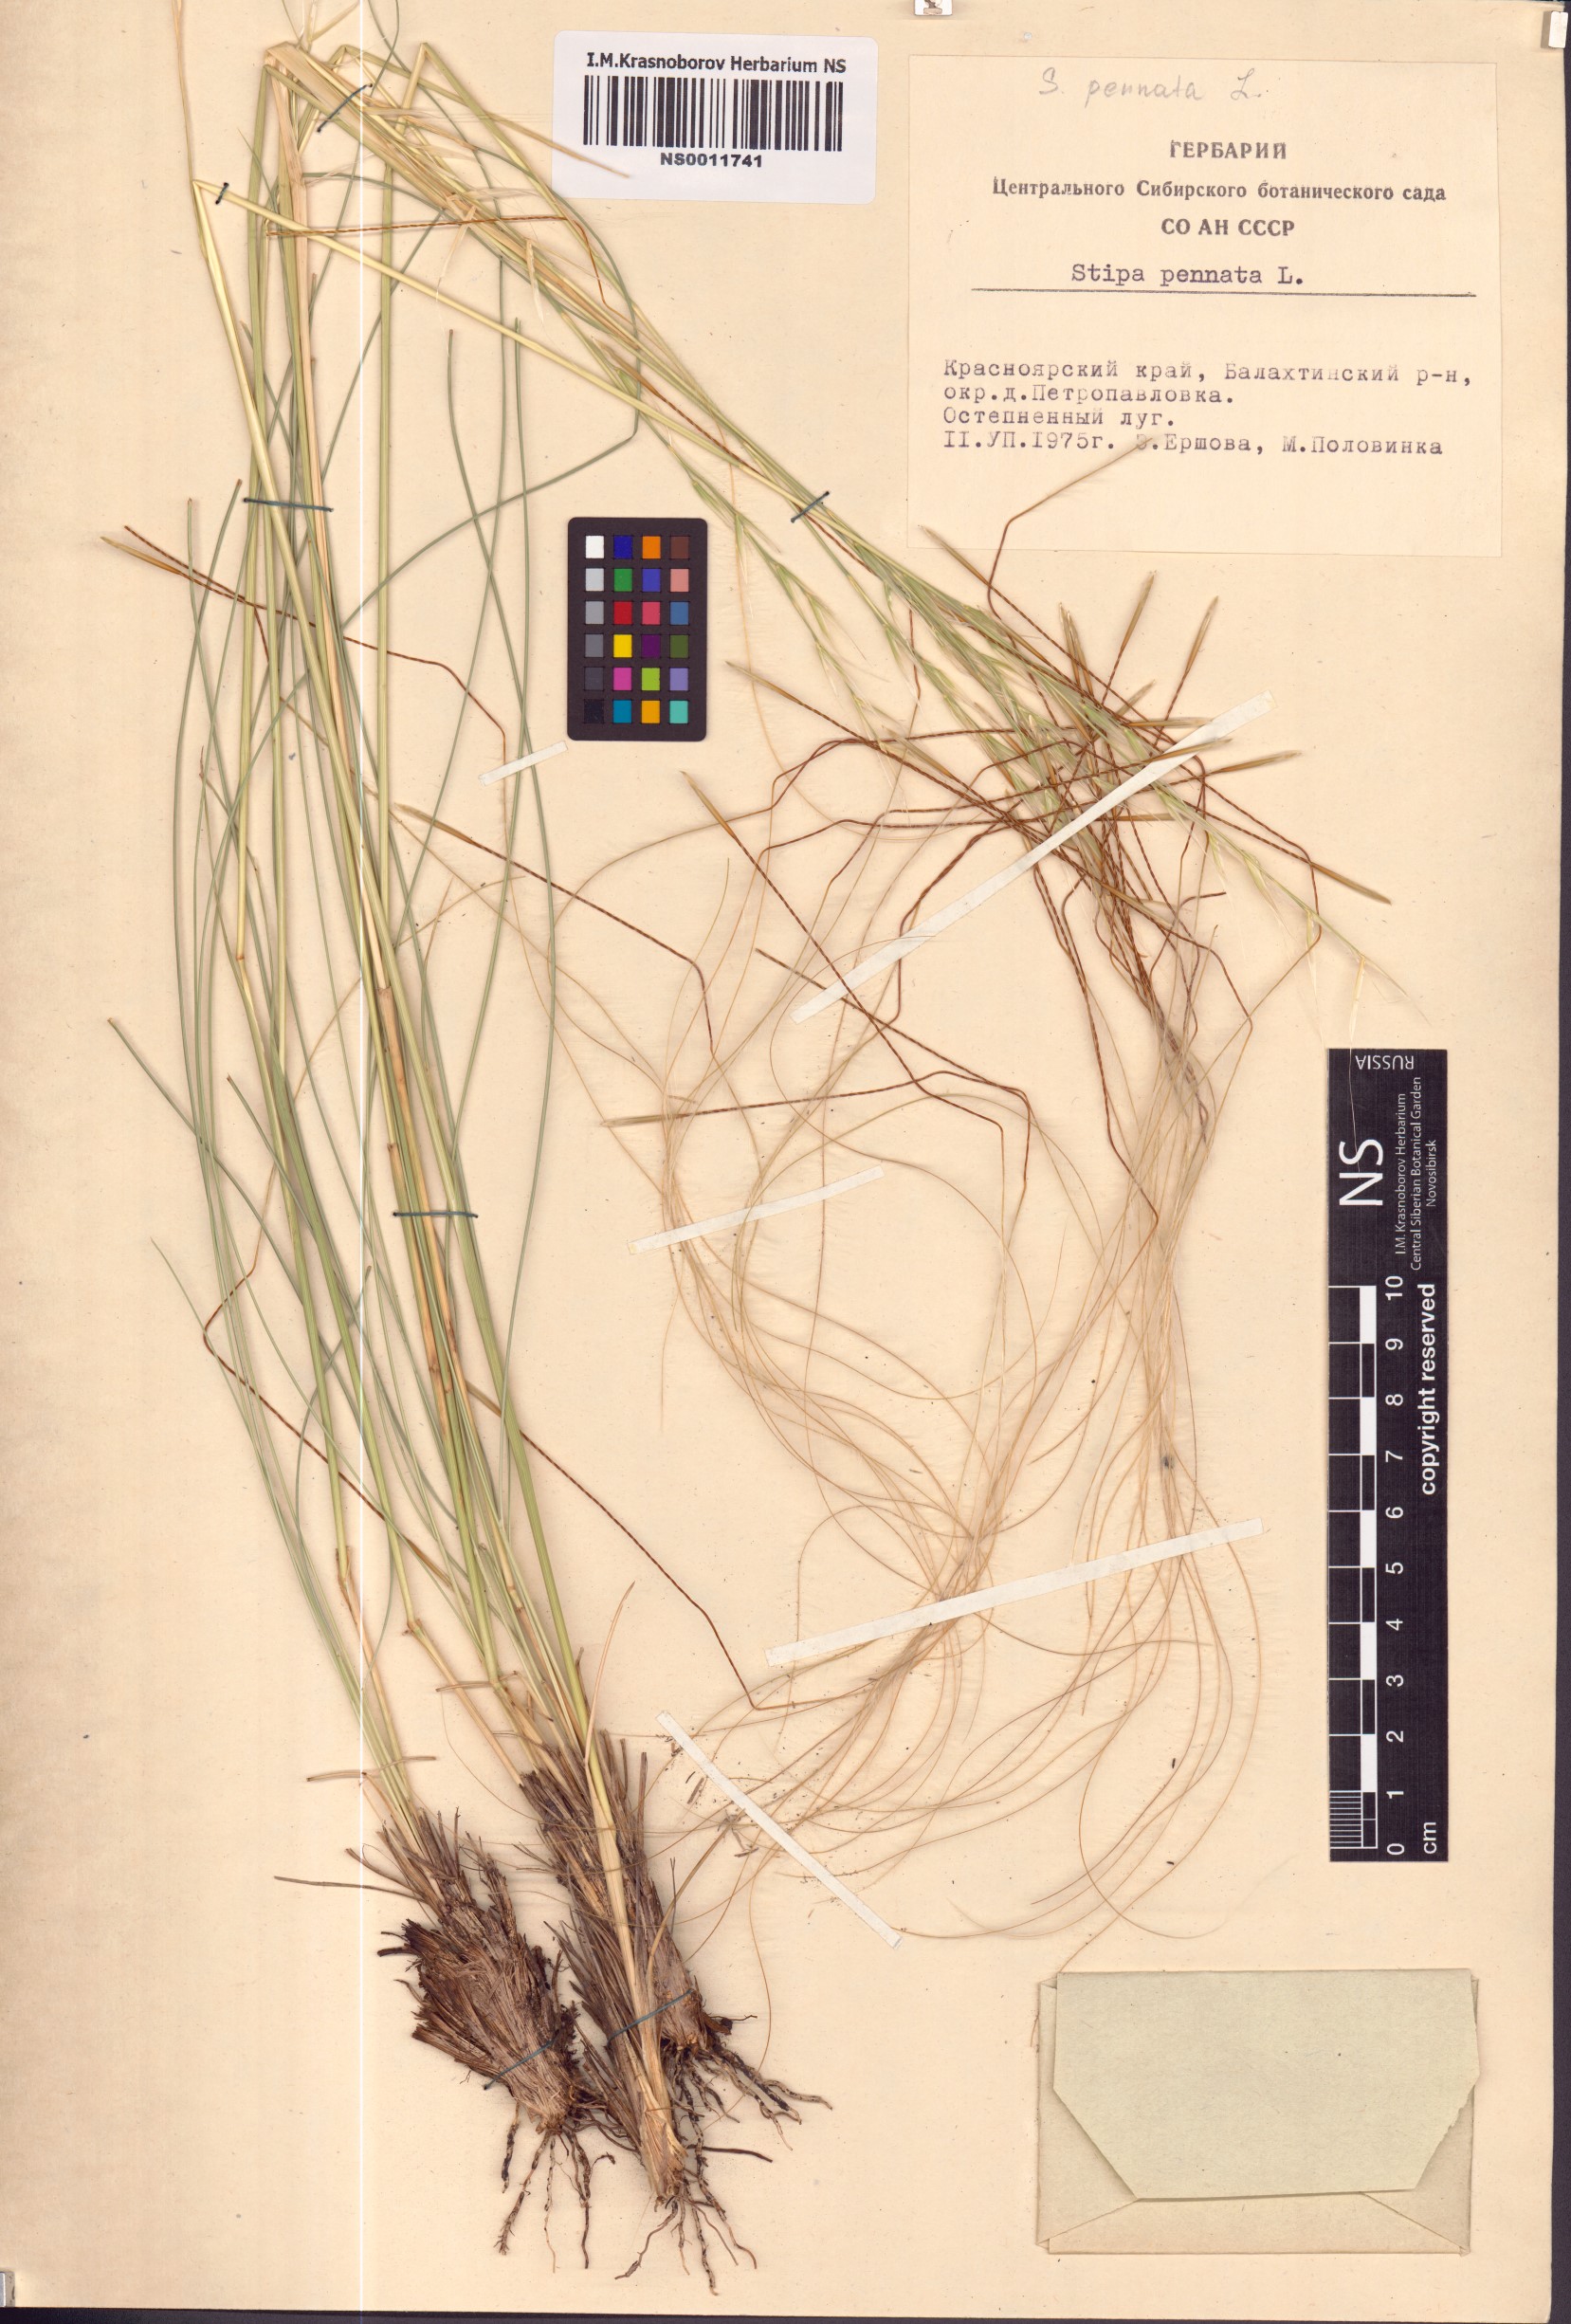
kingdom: Plantae
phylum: Tracheophyta
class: Liliopsida
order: Poales
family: Poaceae
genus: Stipa
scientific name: Stipa pennata
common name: European feather grass
